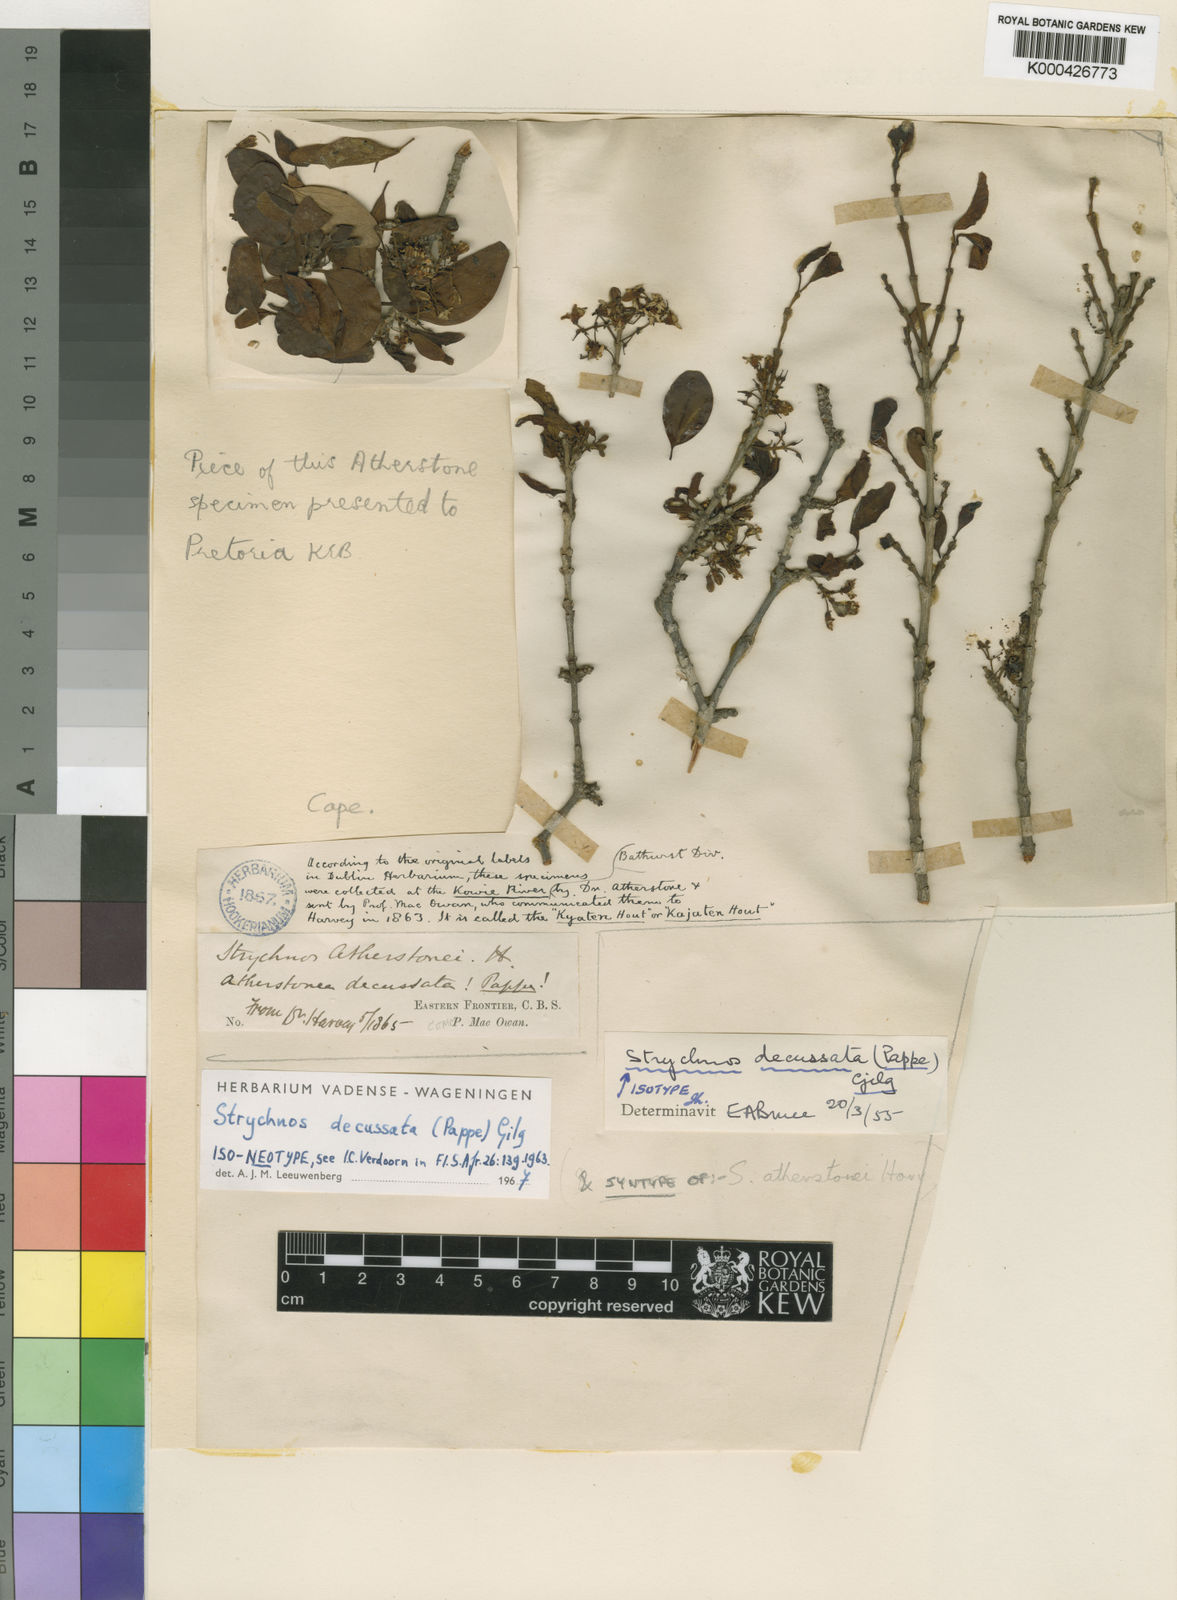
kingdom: Plantae
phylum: Tracheophyta
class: Magnoliopsida
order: Gentianales
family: Loganiaceae
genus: Strychnos
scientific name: Strychnos decussata
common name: Cape teak
